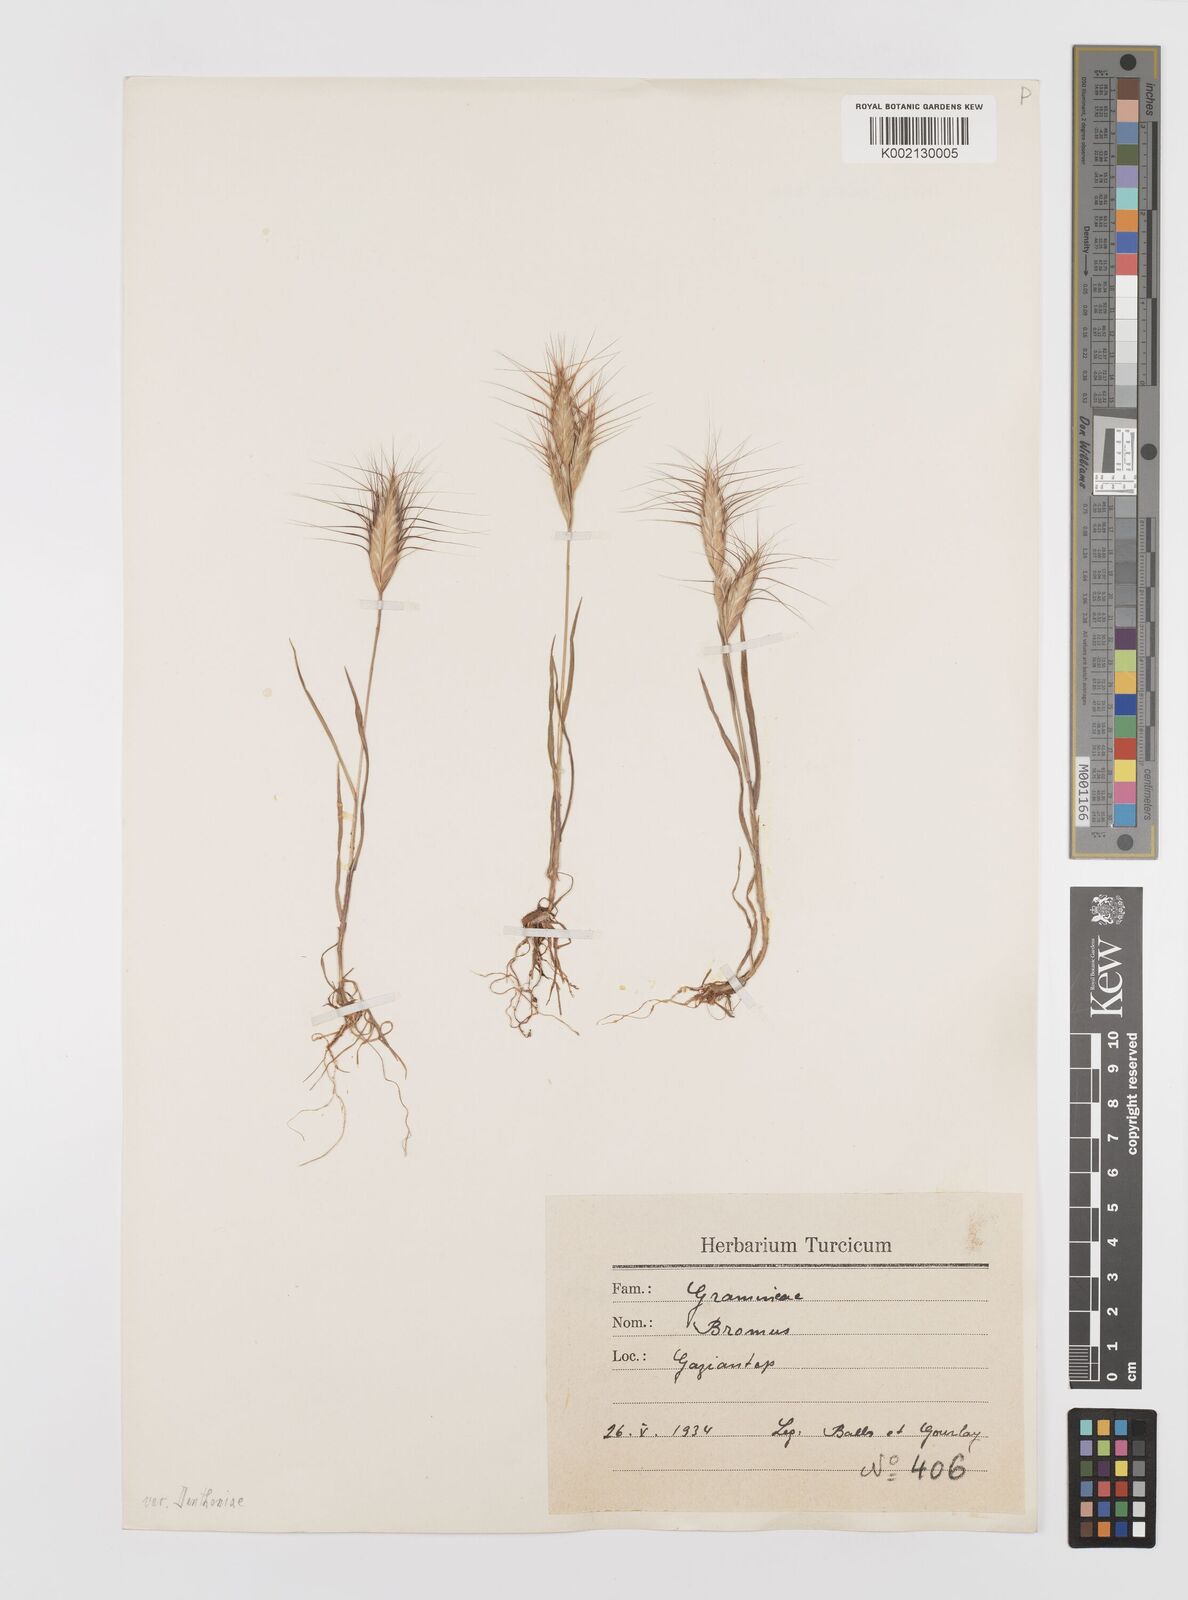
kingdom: Plantae
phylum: Tracheophyta
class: Liliopsida
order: Poales
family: Poaceae
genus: Bromus
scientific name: Bromus danthoniae
